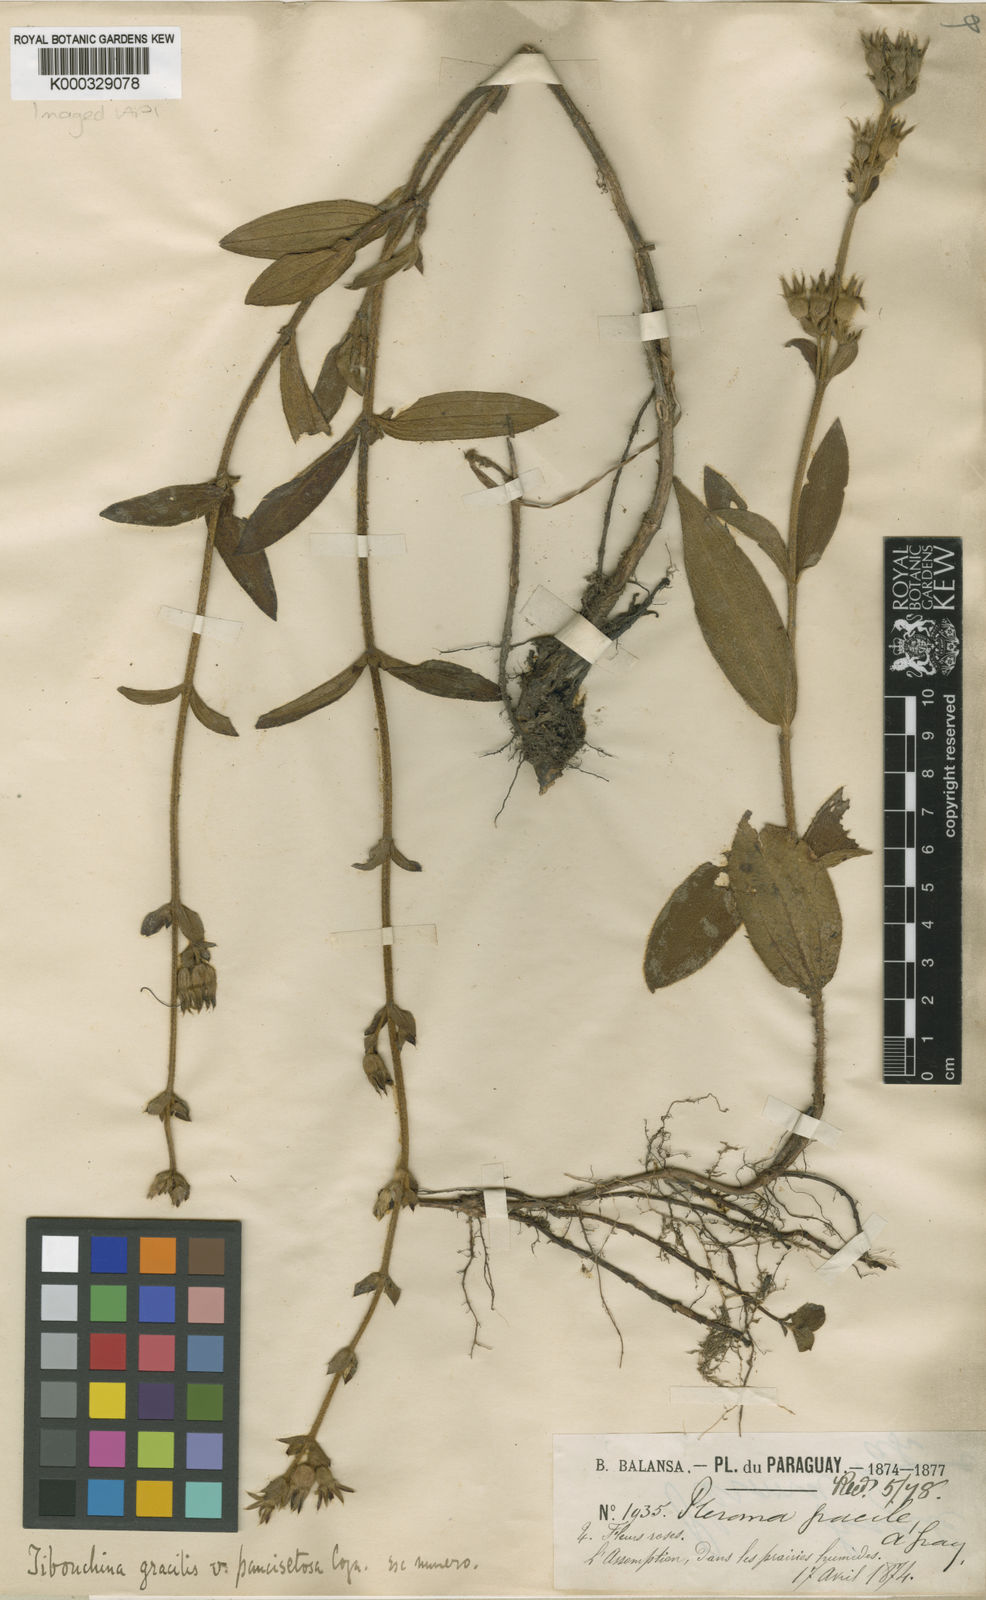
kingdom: Plantae
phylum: Tracheophyta
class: Magnoliopsida
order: Myrtales
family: Melastomataceae
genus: Chaetogastra
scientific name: Chaetogastra gracilis
